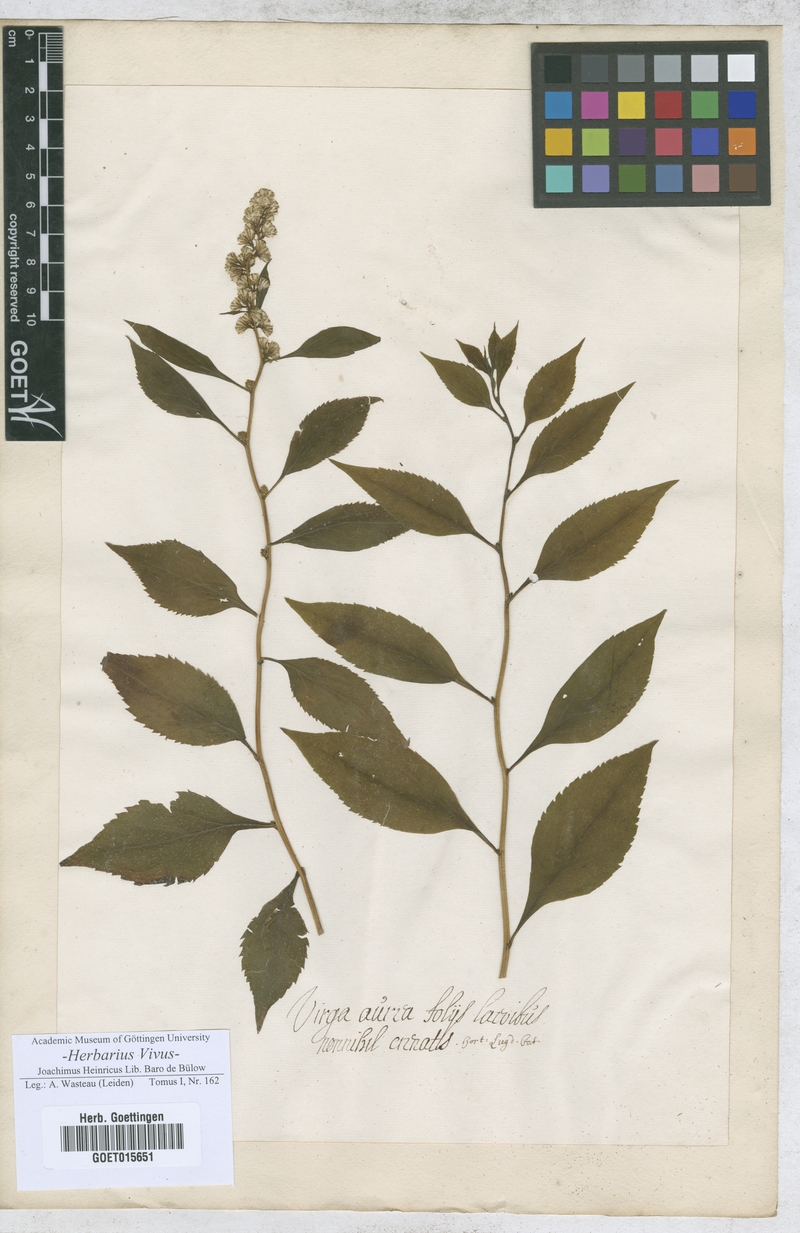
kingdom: Animalia
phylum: Arthropoda
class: Insecta
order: Lepidoptera
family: Hesperiidae
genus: Virga
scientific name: Virga
